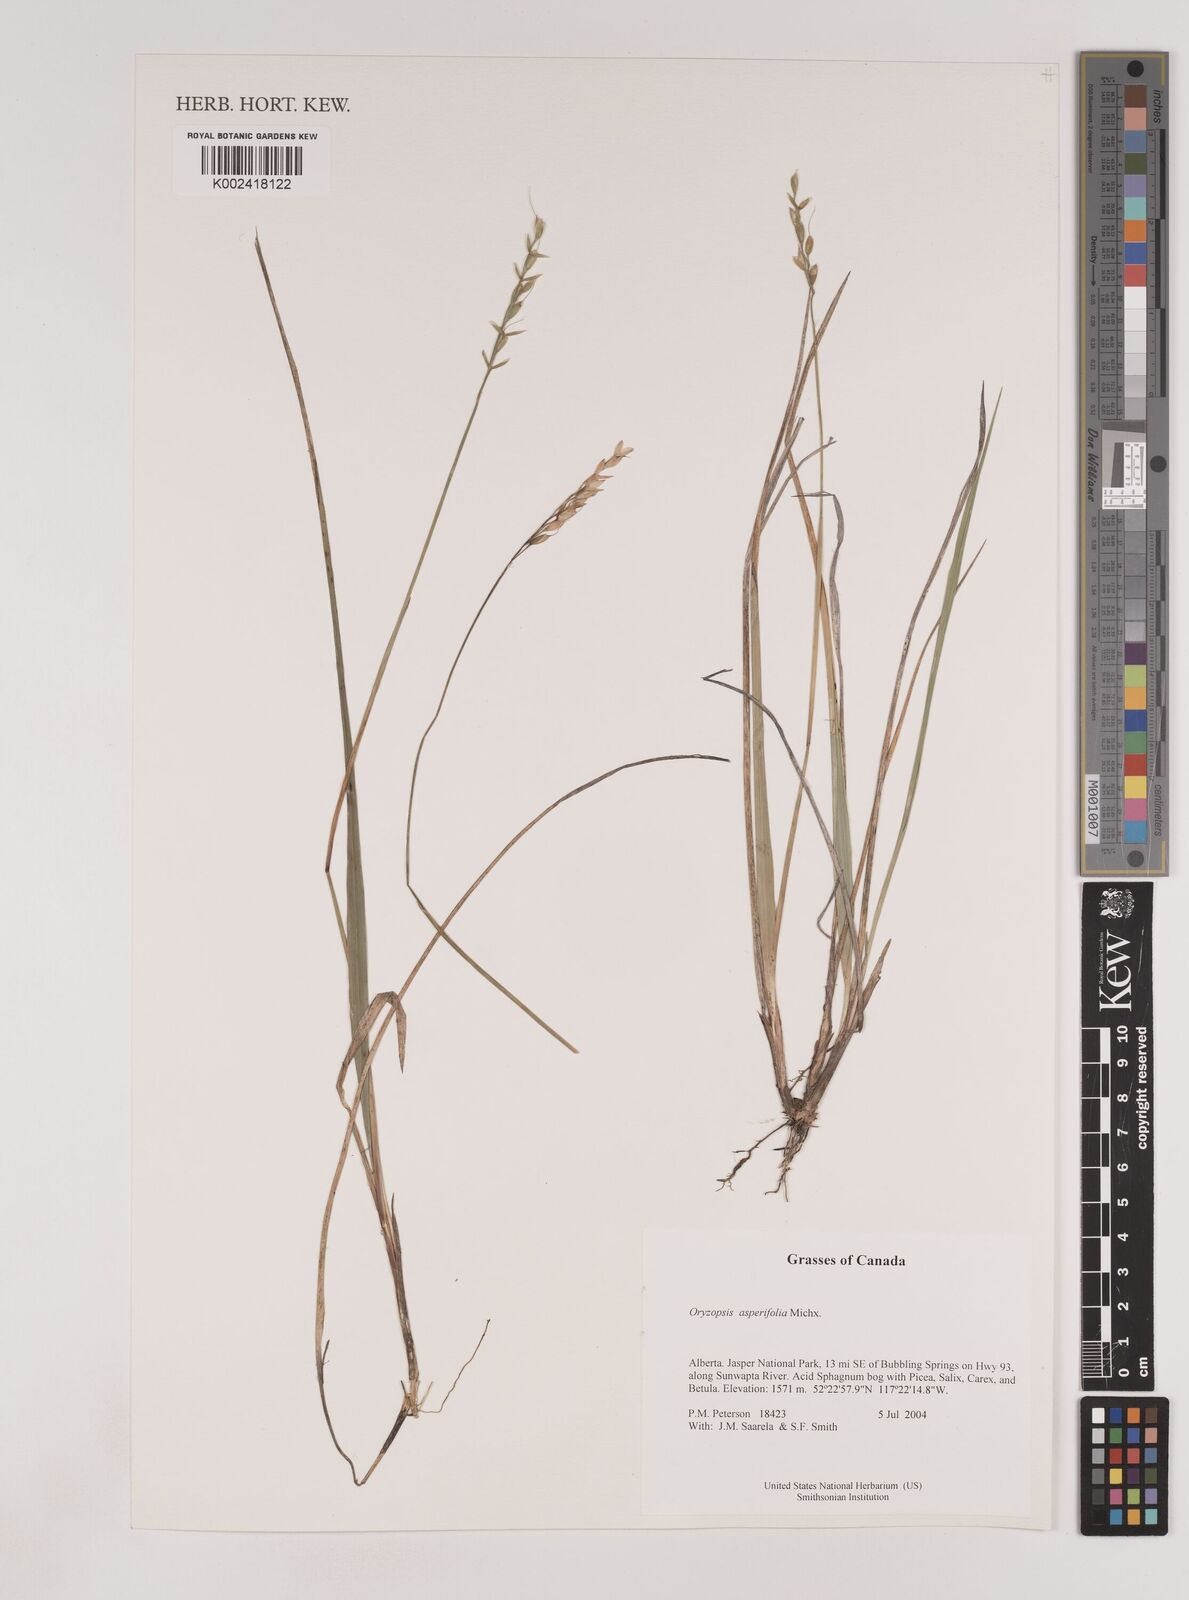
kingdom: Plantae
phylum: Tracheophyta
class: Liliopsida
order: Poales
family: Poaceae
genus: Oryzopsis
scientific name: Oryzopsis asperifolia
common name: Rough-leaved mountain rice
